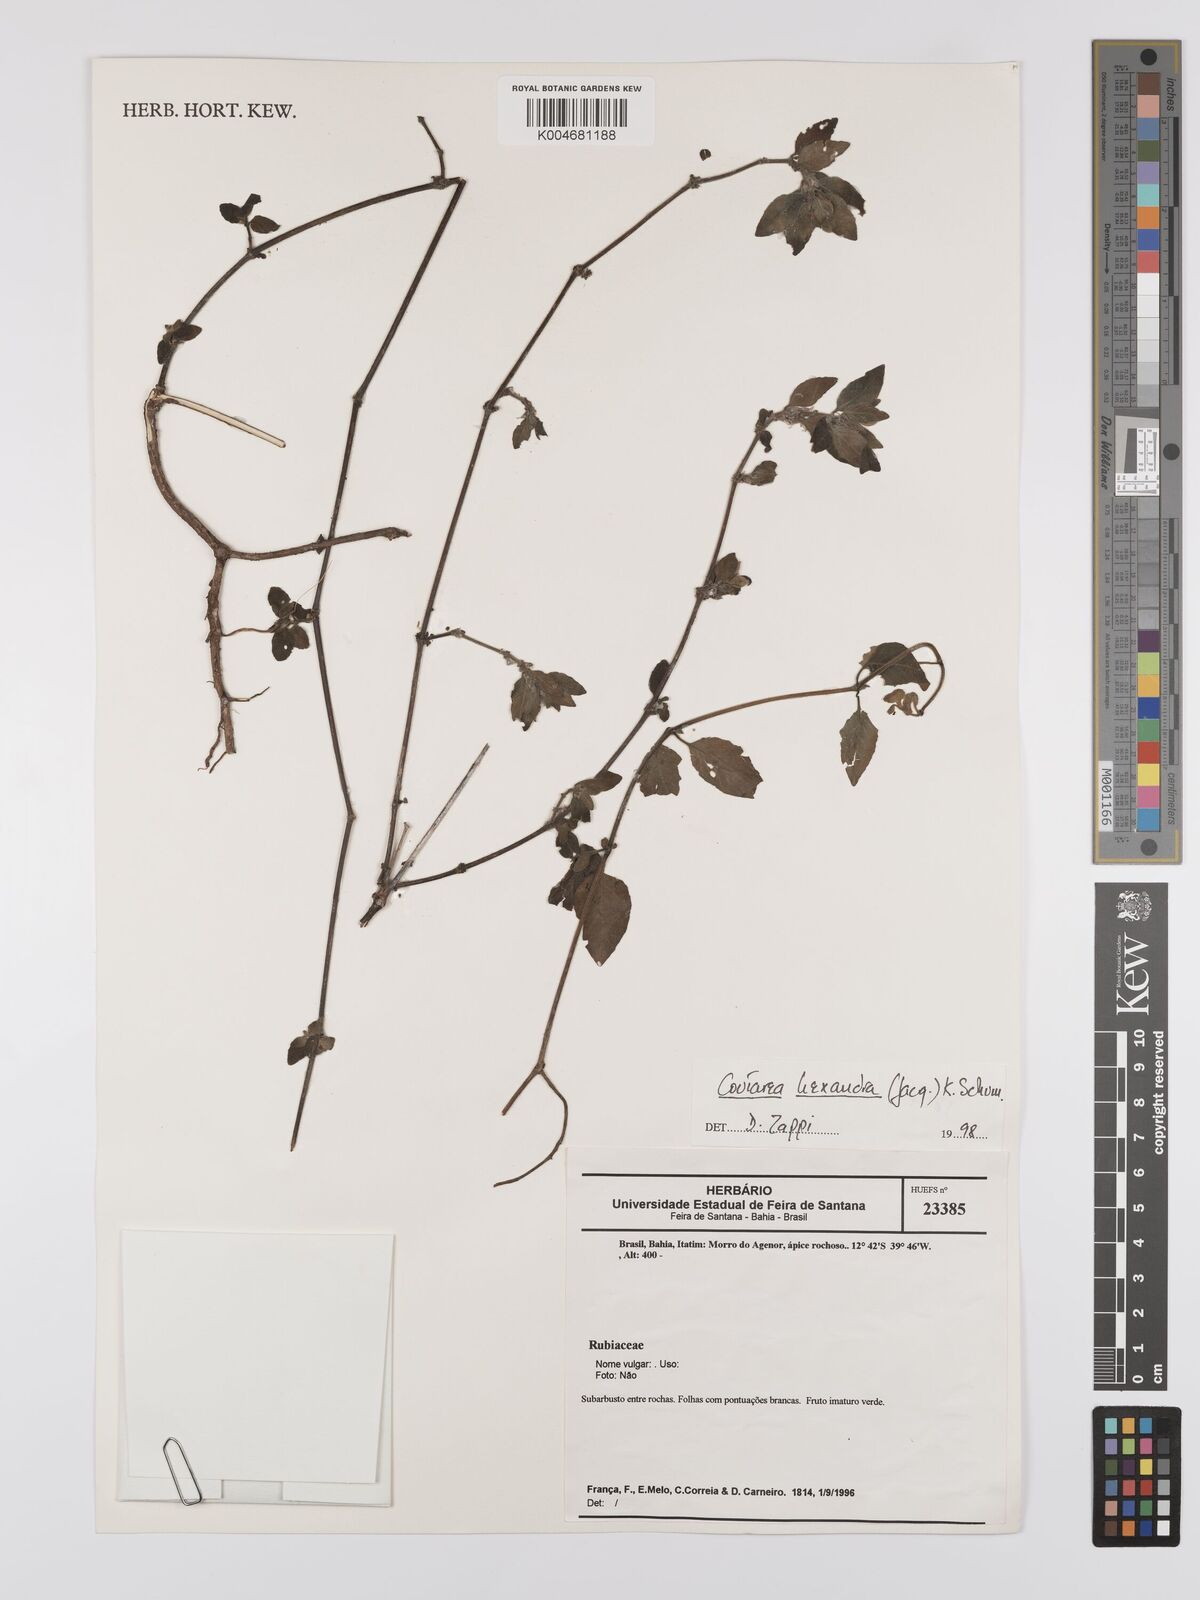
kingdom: Plantae
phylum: Tracheophyta
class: Magnoliopsida
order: Gentianales
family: Rubiaceae
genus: Coutarea
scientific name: Coutarea hexandra
